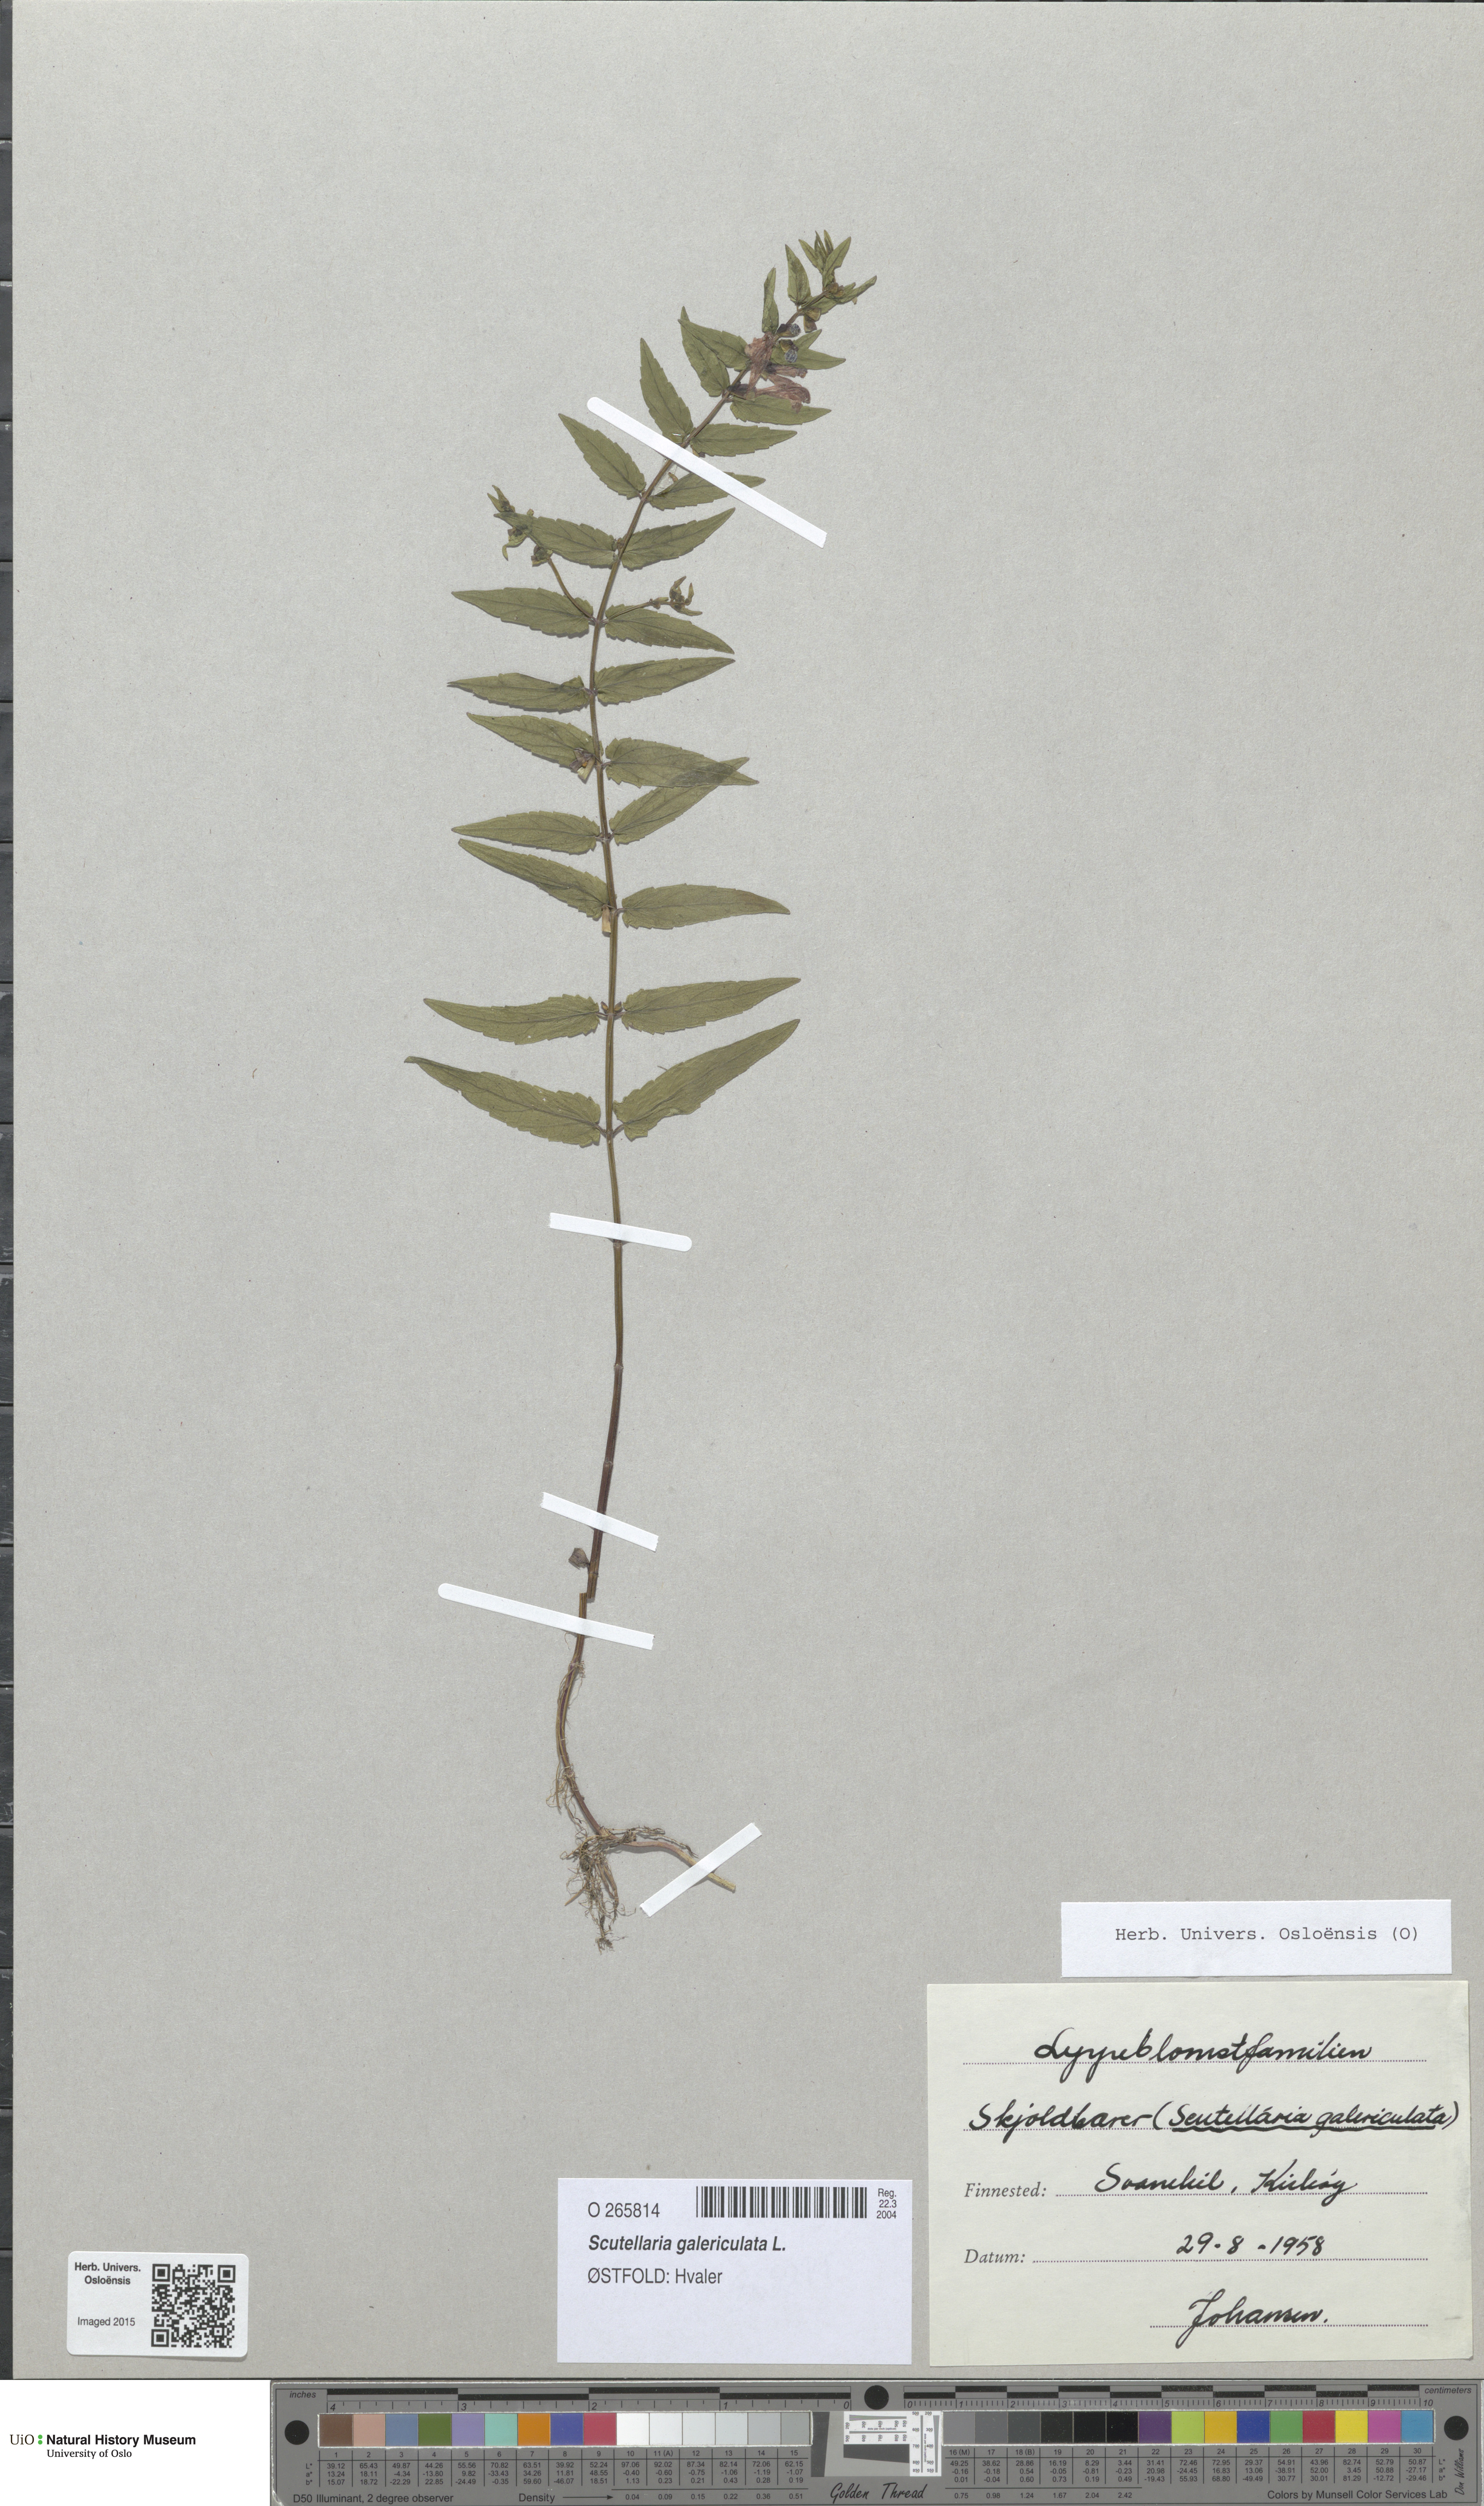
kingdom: Plantae
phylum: Tracheophyta
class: Magnoliopsida
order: Lamiales
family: Lamiaceae
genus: Scutellaria
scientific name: Scutellaria galericulata
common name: Skullcap
